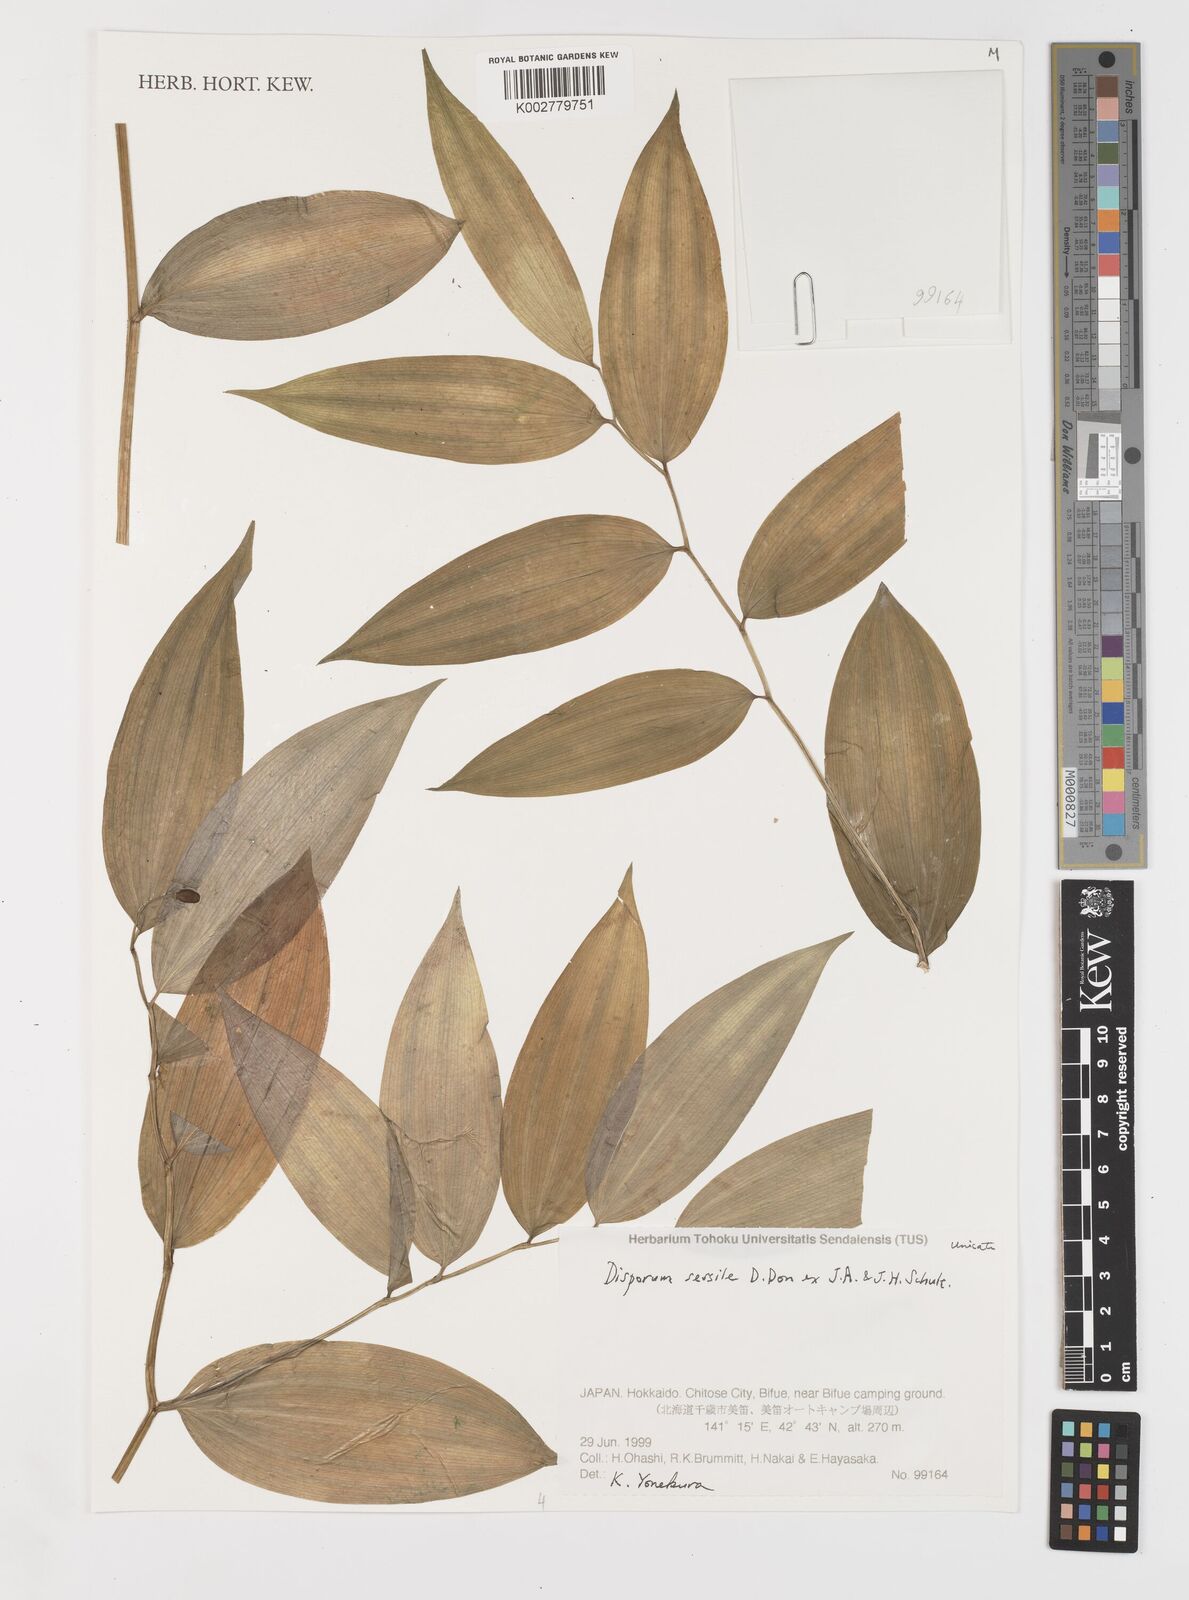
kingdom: Plantae
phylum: Tracheophyta
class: Liliopsida
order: Liliales
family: Colchicaceae
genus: Disporum
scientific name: Disporum sessile
